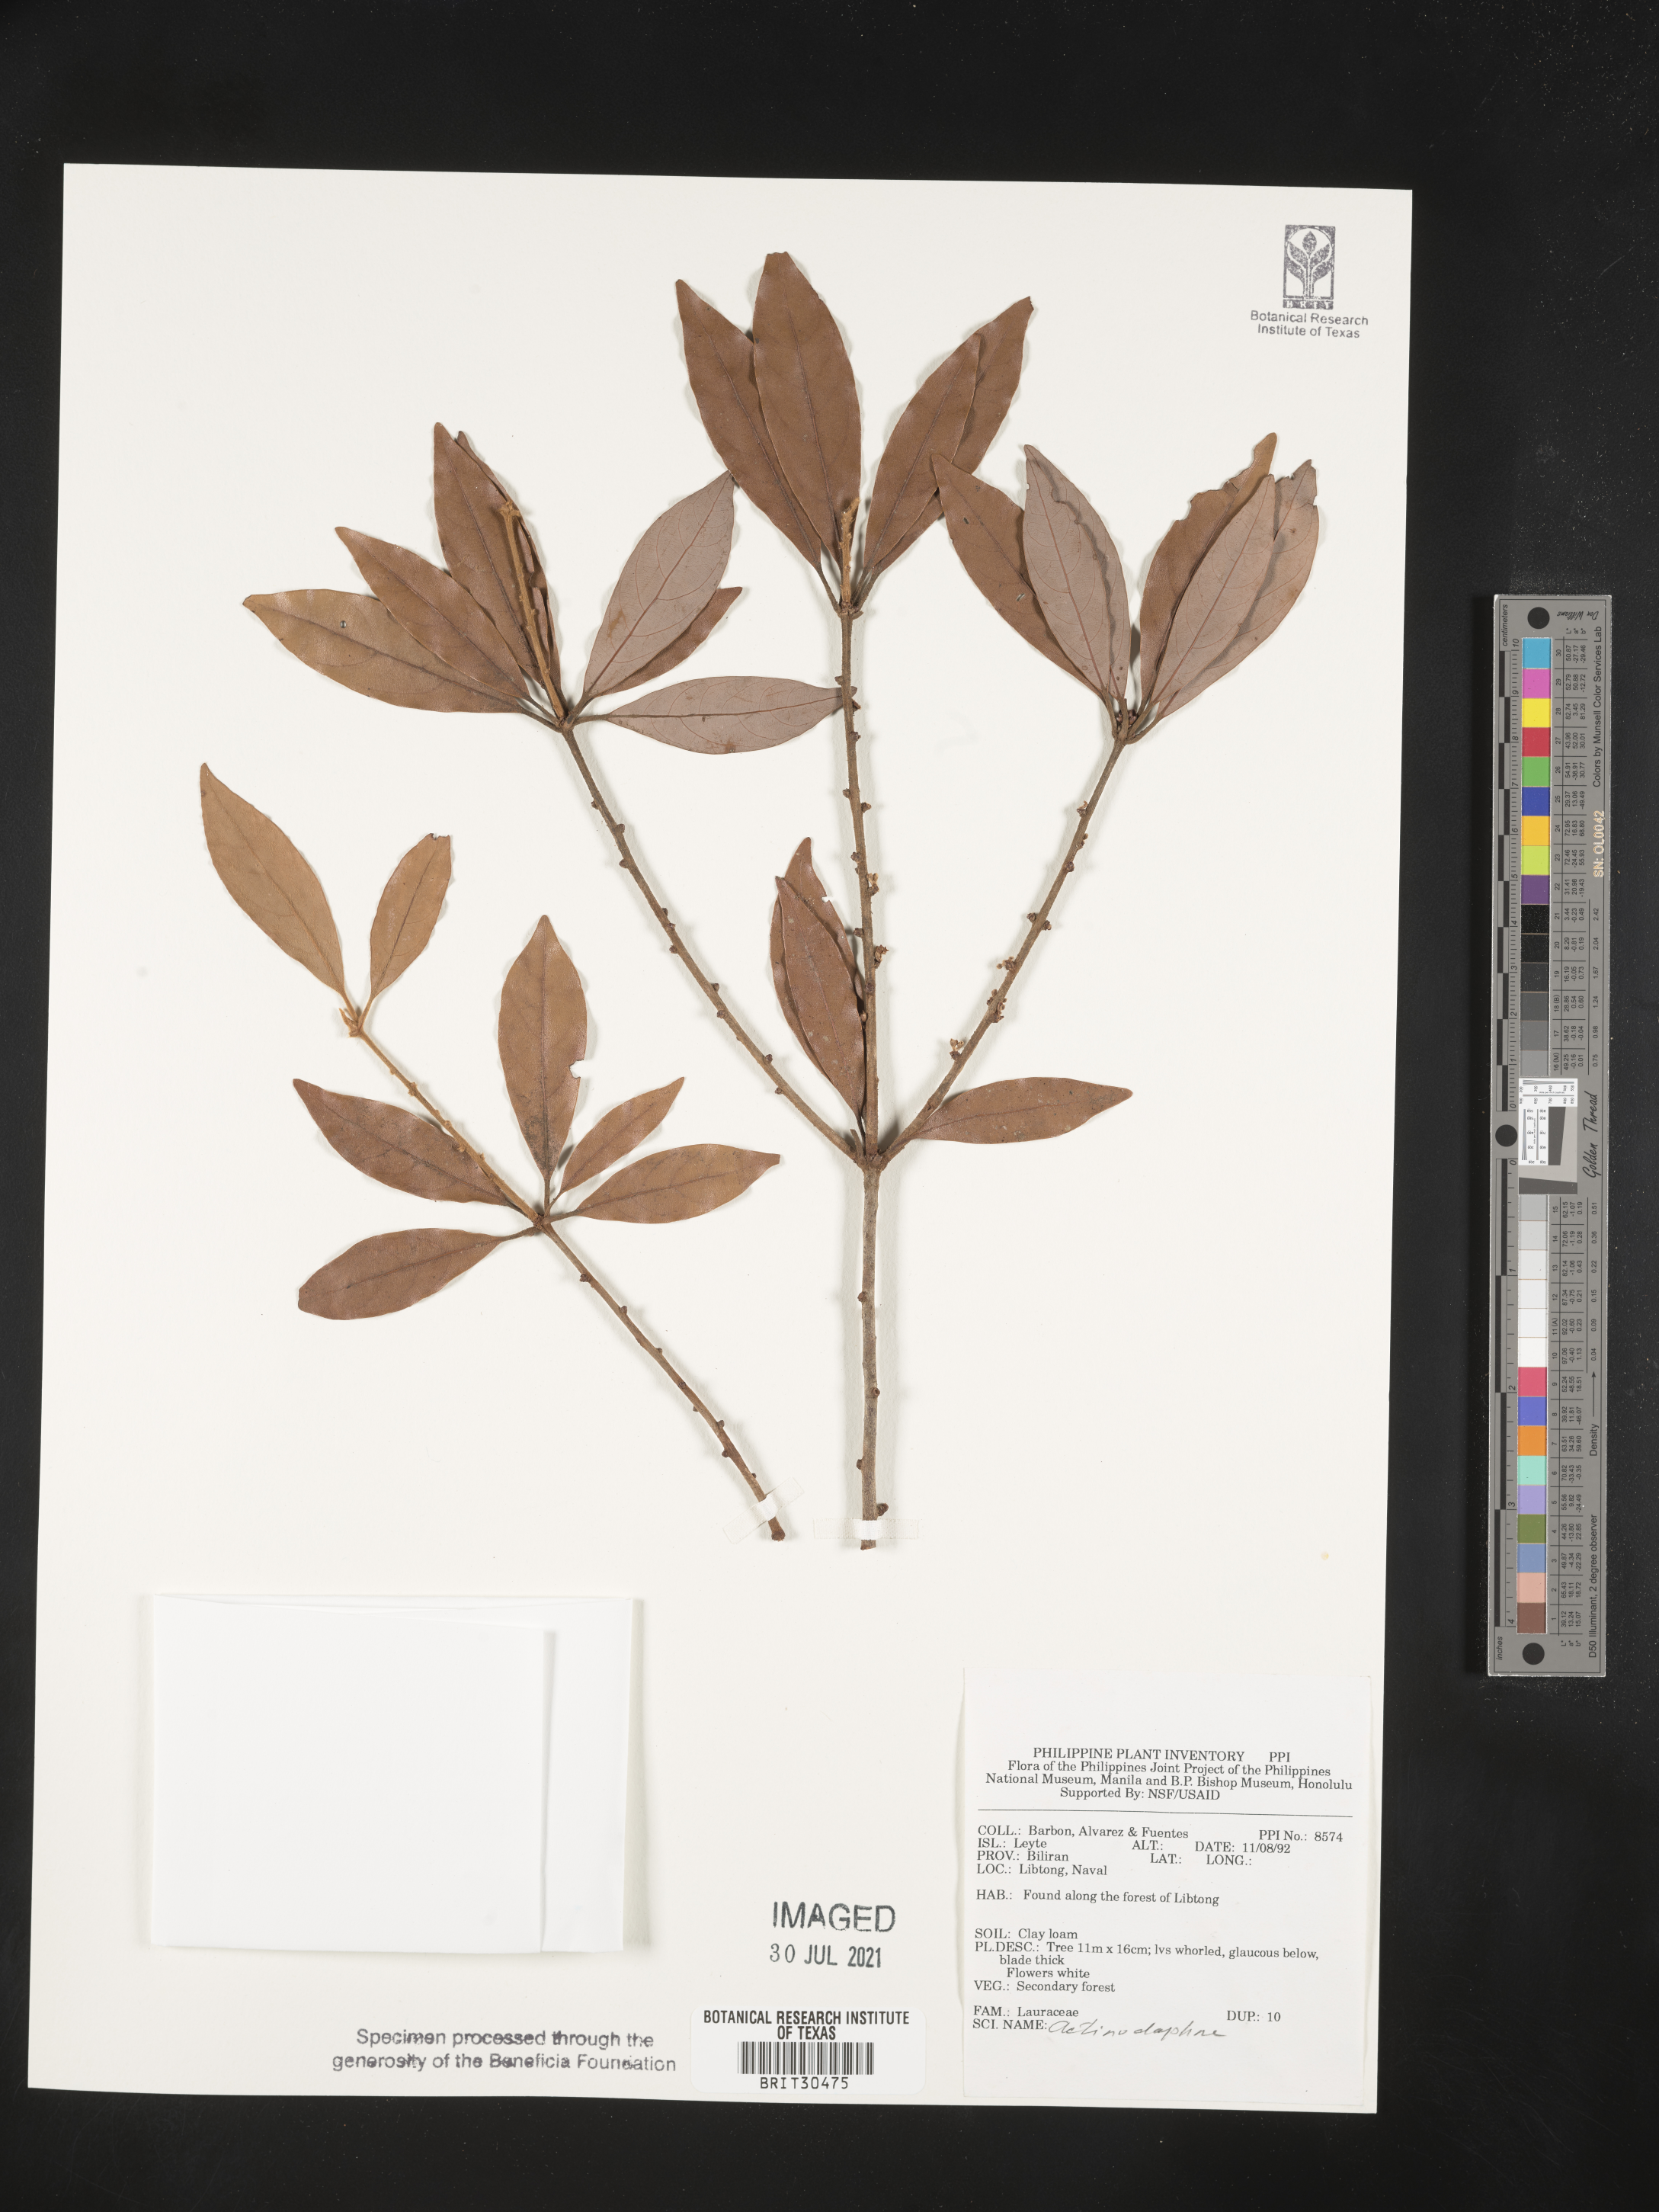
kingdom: Plantae
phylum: Tracheophyta
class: Magnoliopsida
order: Laurales
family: Lauraceae
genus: Actinodaphne
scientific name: Actinodaphne
